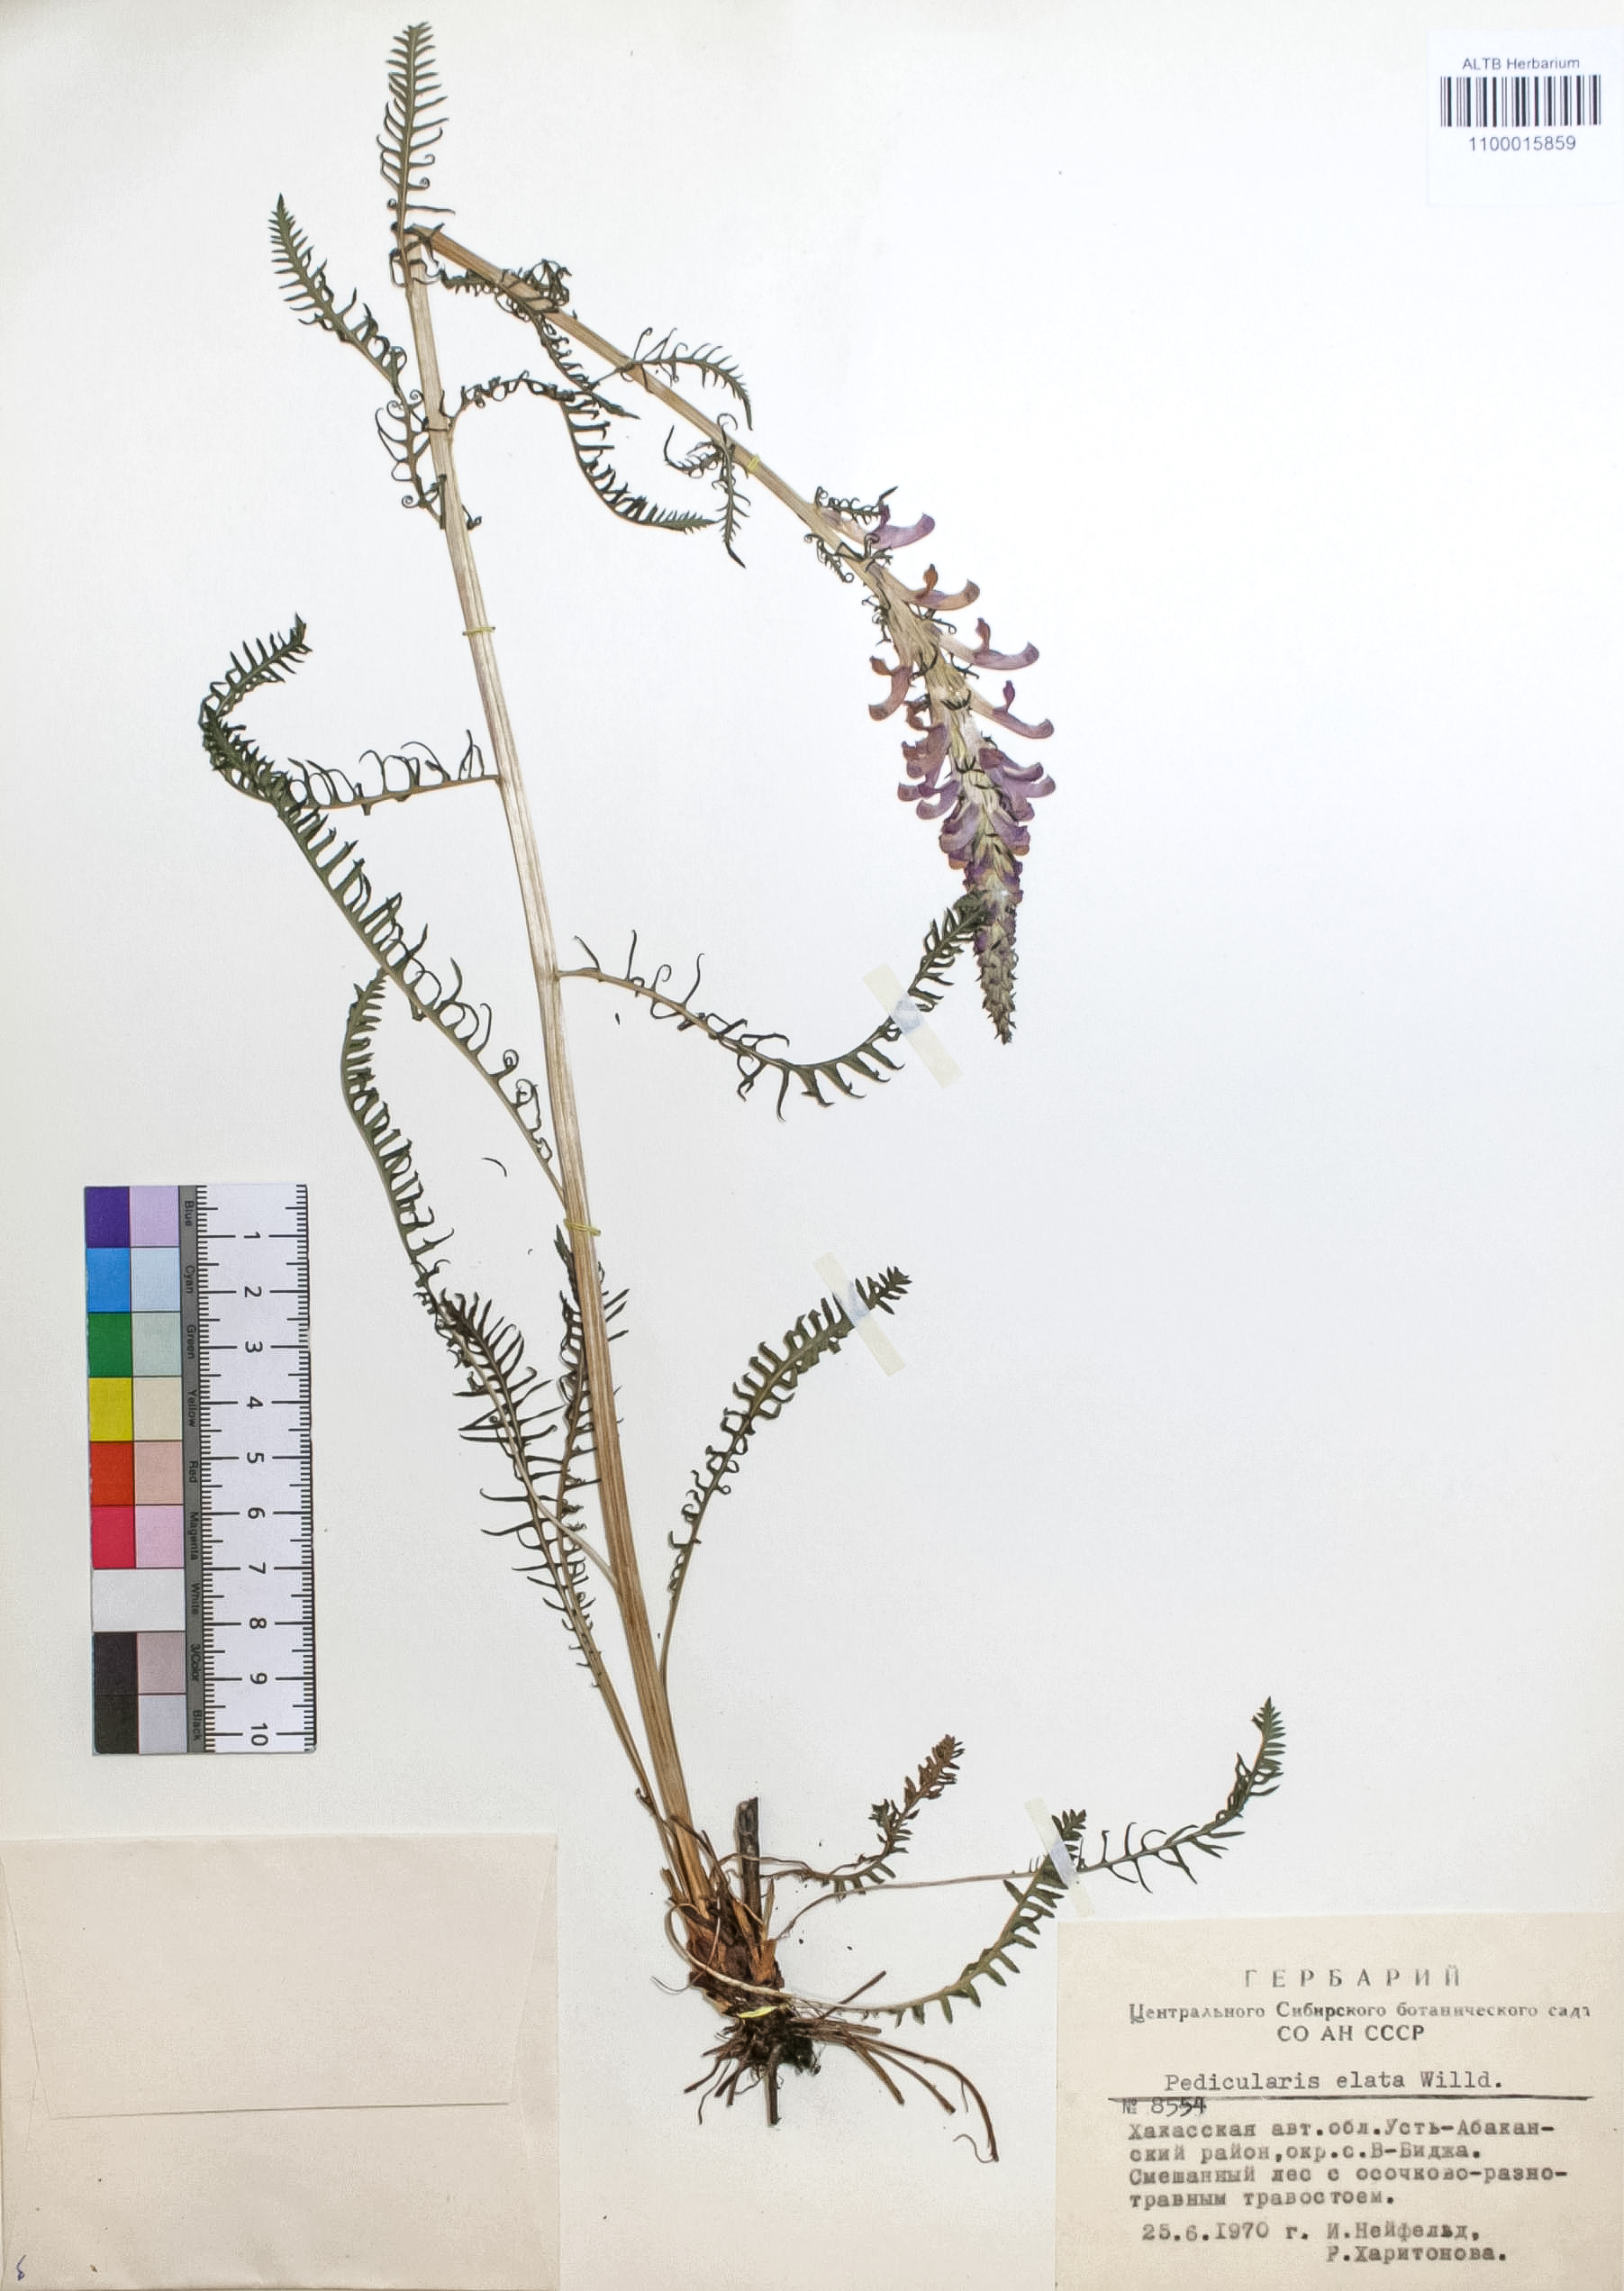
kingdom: Plantae
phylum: Tracheophyta
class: Magnoliopsida
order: Lamiales
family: Orobanchaceae
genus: Pedicularis
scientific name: Pedicularis elata
